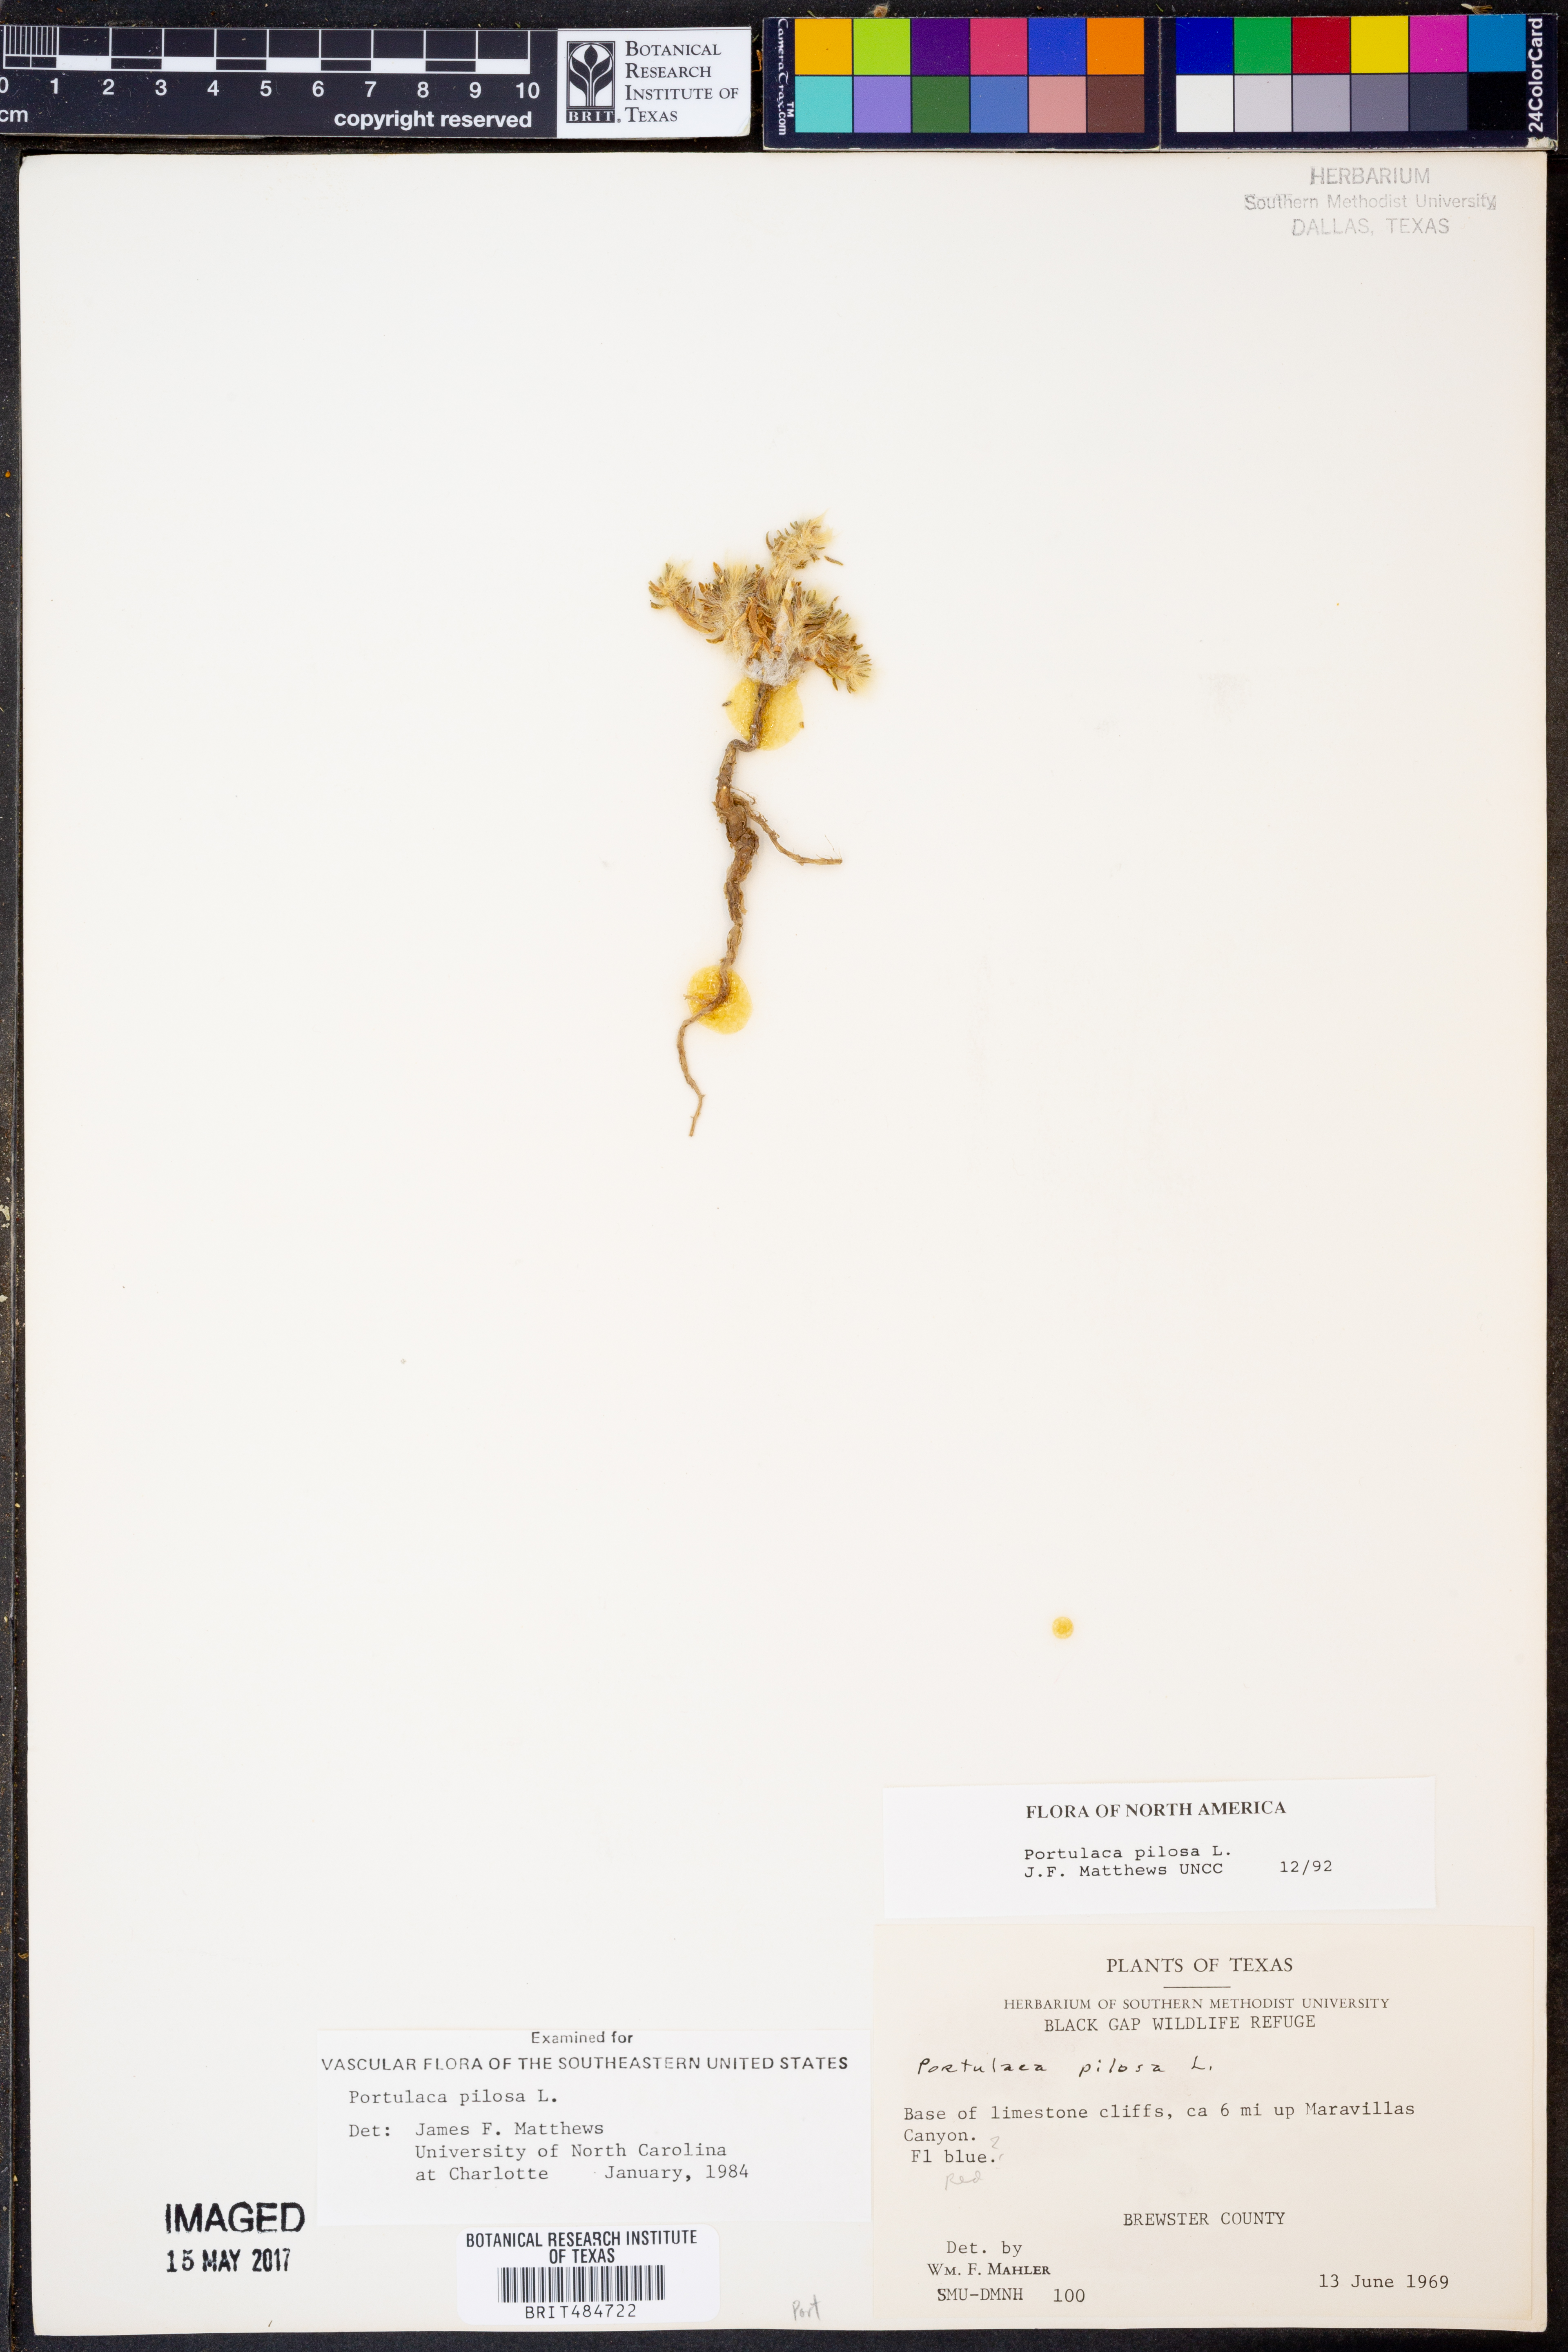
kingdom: Plantae
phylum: Tracheophyta
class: Magnoliopsida
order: Caryophyllales
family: Portulacaceae
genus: Portulaca
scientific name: Portulaca pilosa
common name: Kiss me quick
